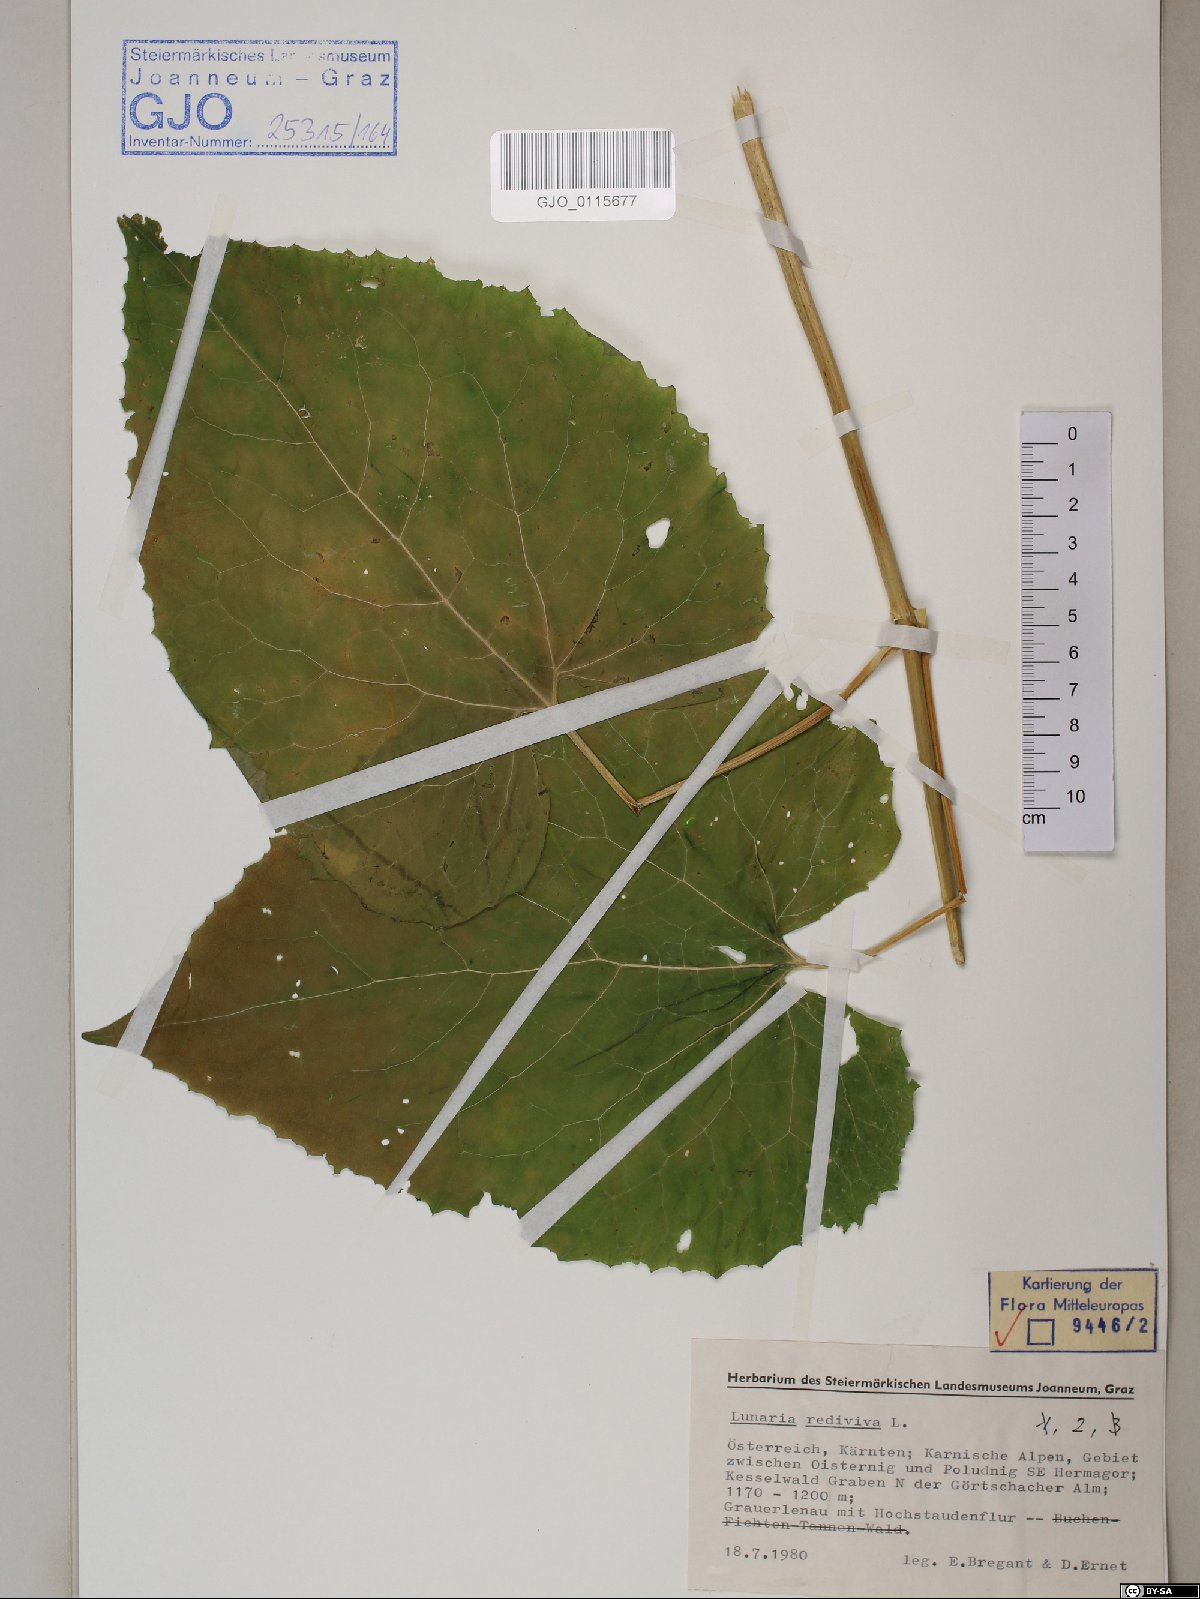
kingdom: Plantae
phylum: Tracheophyta
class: Magnoliopsida
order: Brassicales
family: Brassicaceae
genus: Lunaria
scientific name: Lunaria rediviva
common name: Perennial honesty
